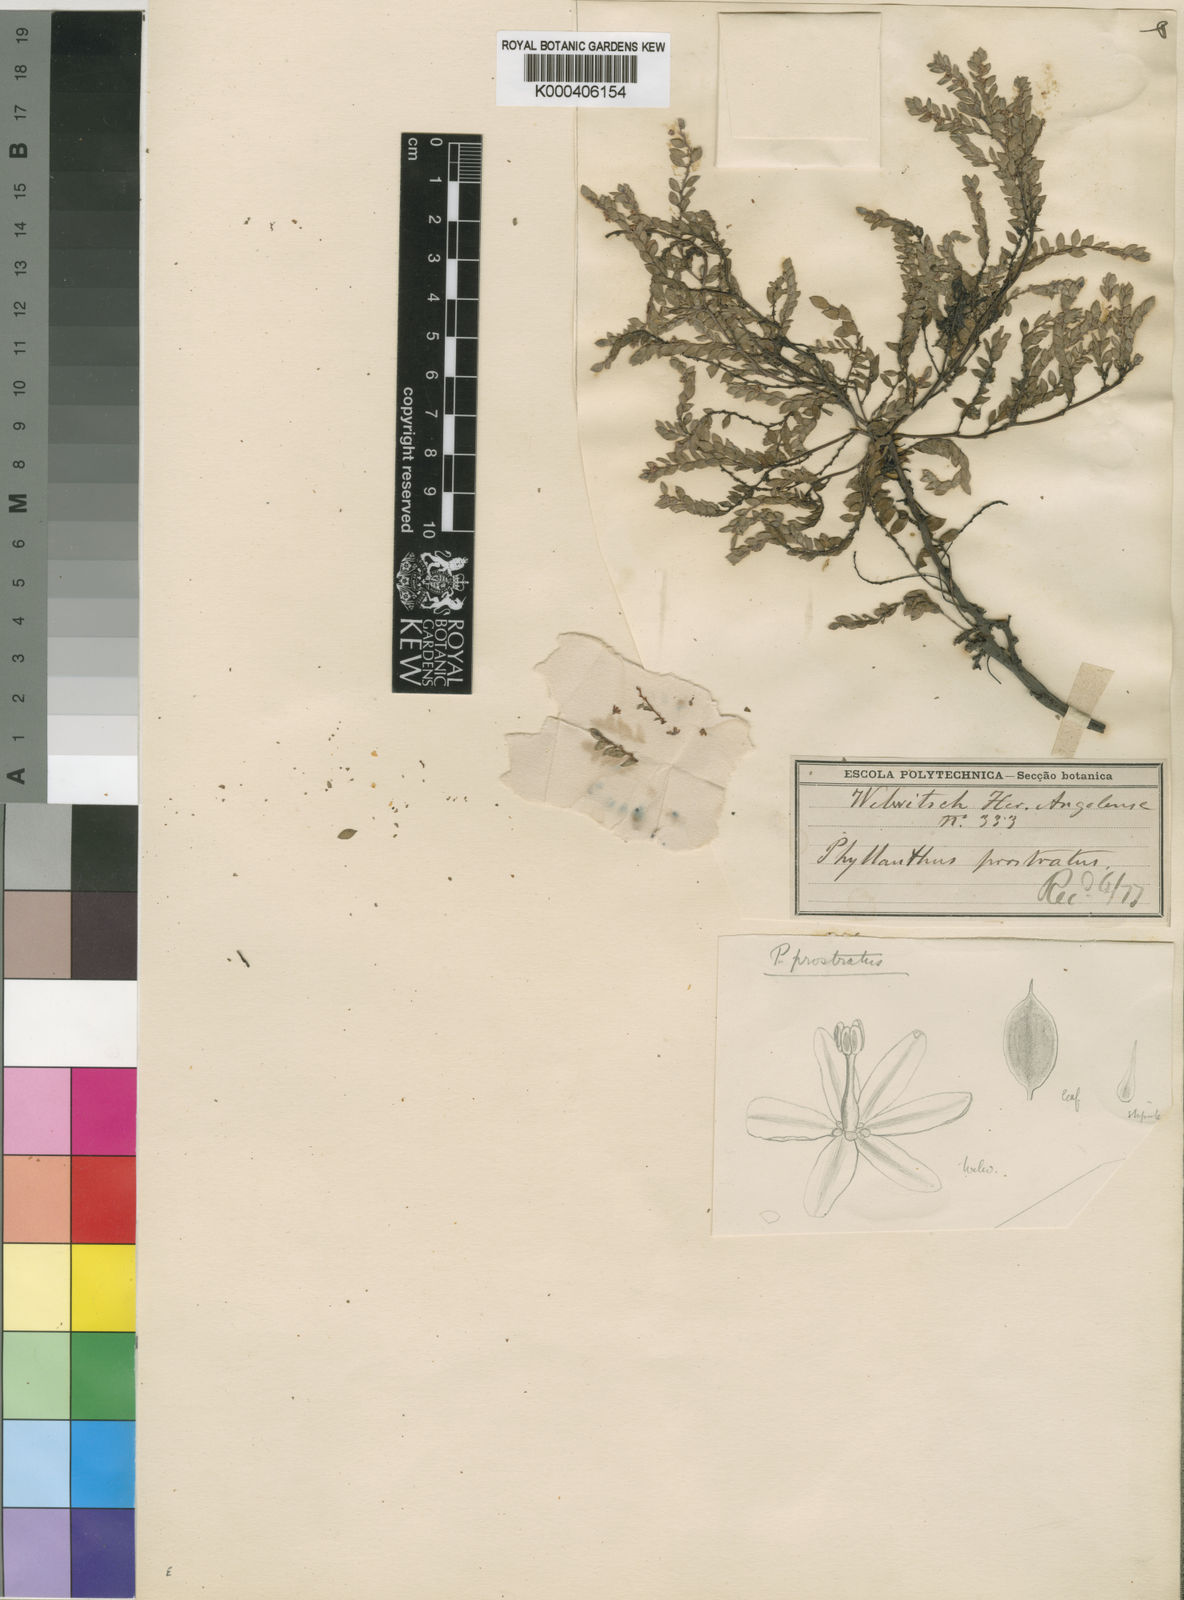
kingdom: Plantae
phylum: Tracheophyta
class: Magnoliopsida
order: Malpighiales
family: Phyllanthaceae
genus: Phyllanthus
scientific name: Phyllanthus
